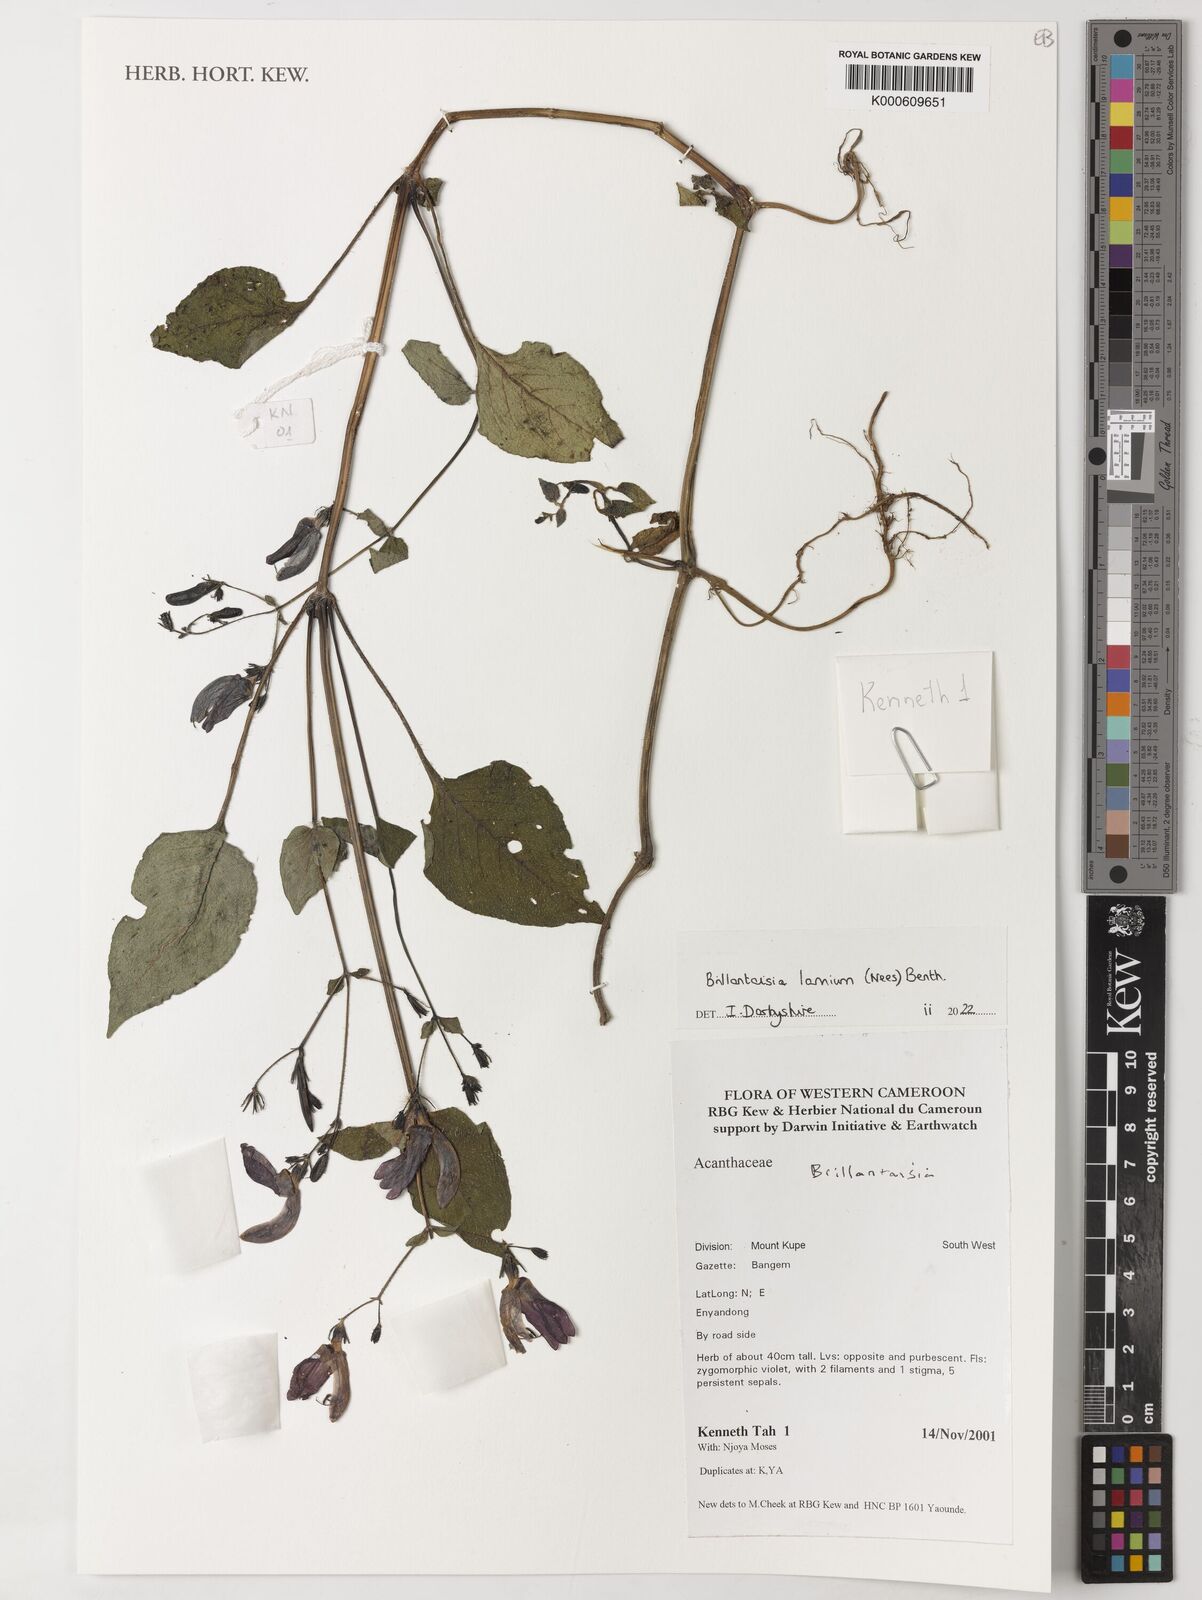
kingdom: Plantae
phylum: Tracheophyta
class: Magnoliopsida
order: Lamiales
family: Acanthaceae
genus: Brillantaisia
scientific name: Brillantaisia lamium
